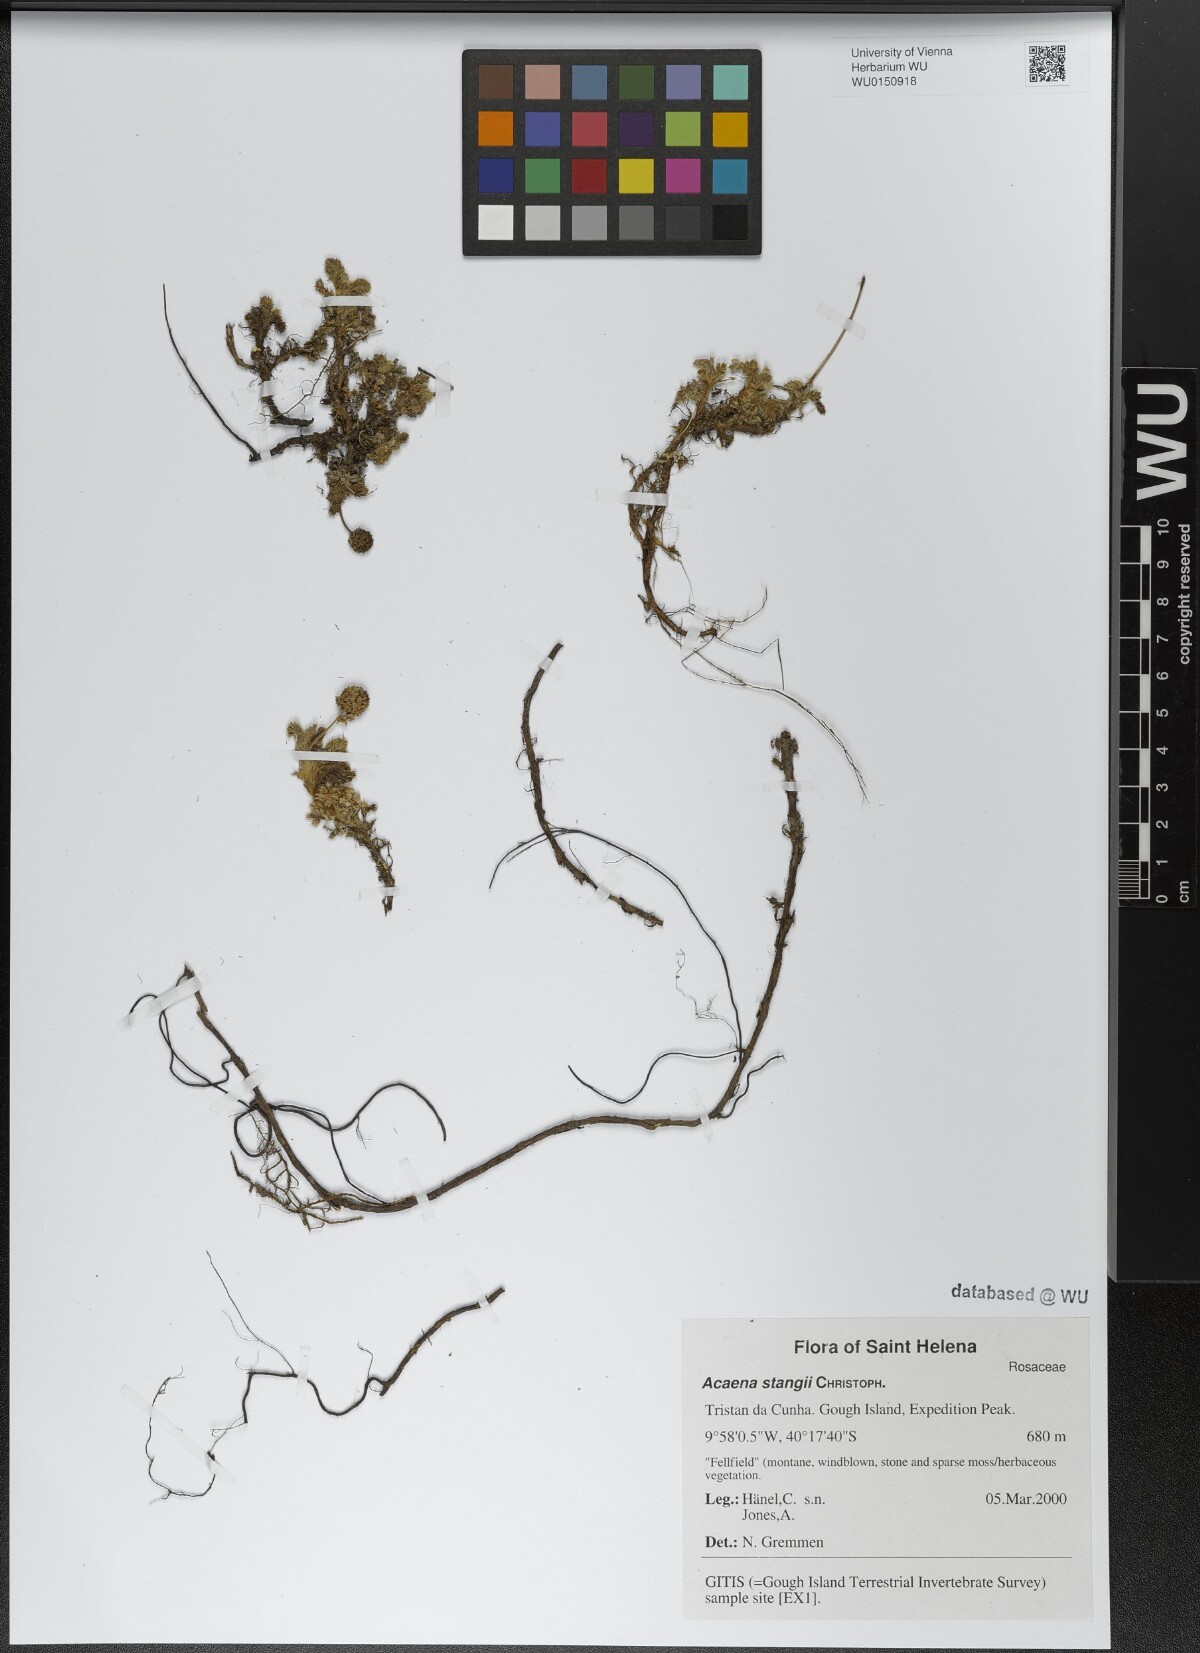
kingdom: Plantae
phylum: Tracheophyta
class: Magnoliopsida
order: Rosales
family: Rosaceae
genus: Acaena
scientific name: Acaena stangii
